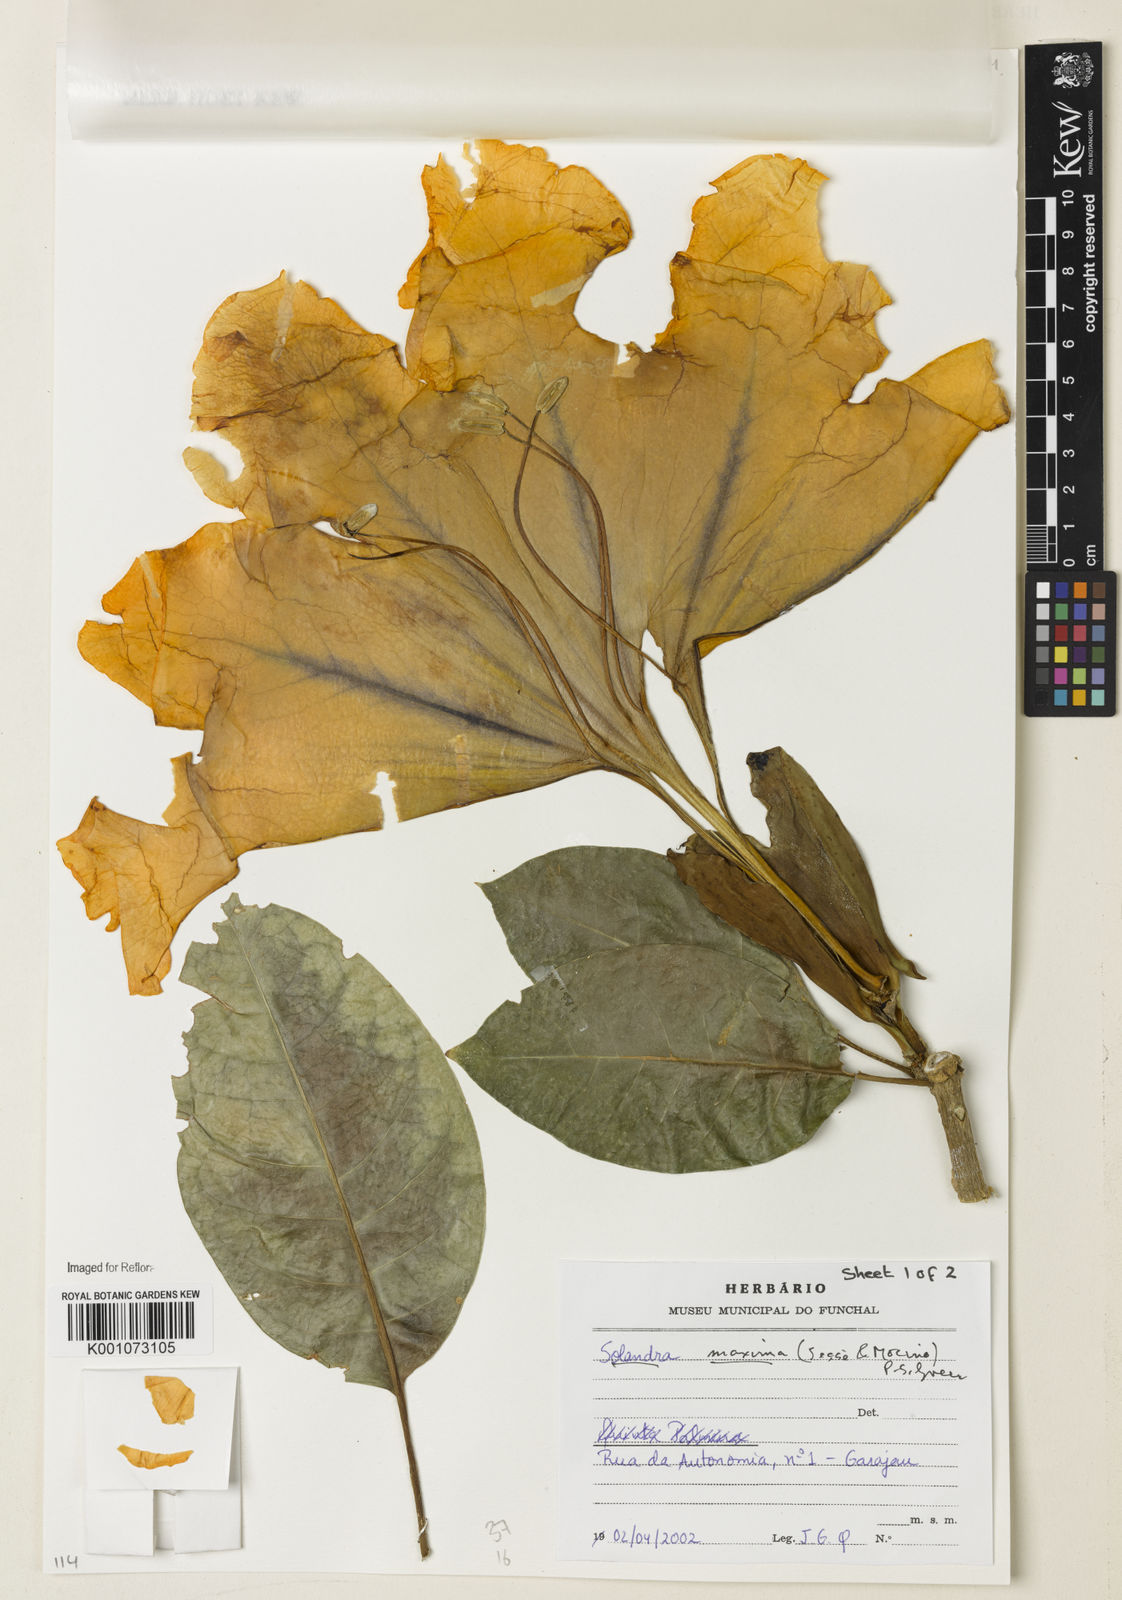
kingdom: Plantae
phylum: Tracheophyta
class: Magnoliopsida
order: Solanales
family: Solanaceae
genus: Solandra
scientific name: Solandra
